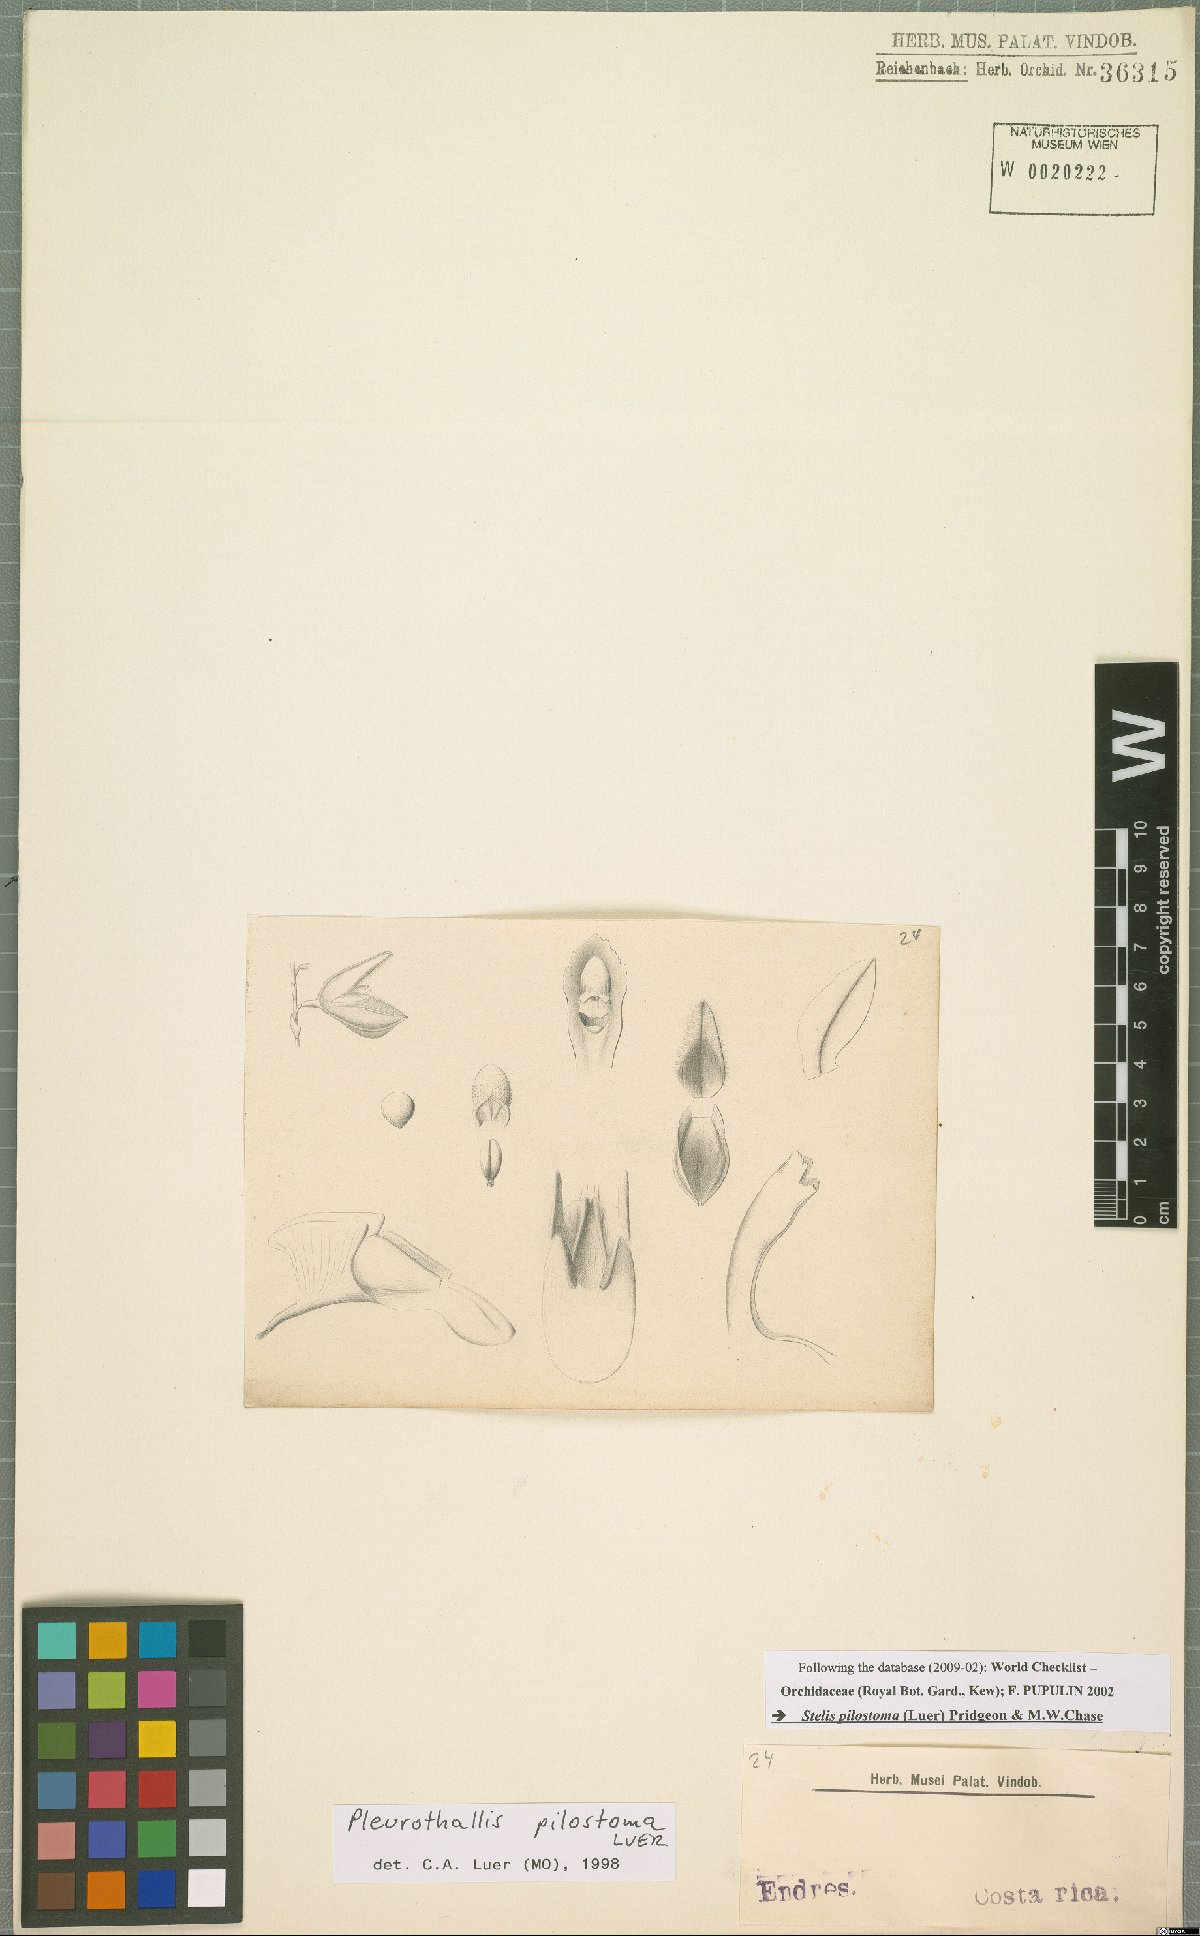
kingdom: Plantae
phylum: Tracheophyta
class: Liliopsida
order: Asparagales
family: Orchidaceae
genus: Stelis
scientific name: Stelis pilostoma
